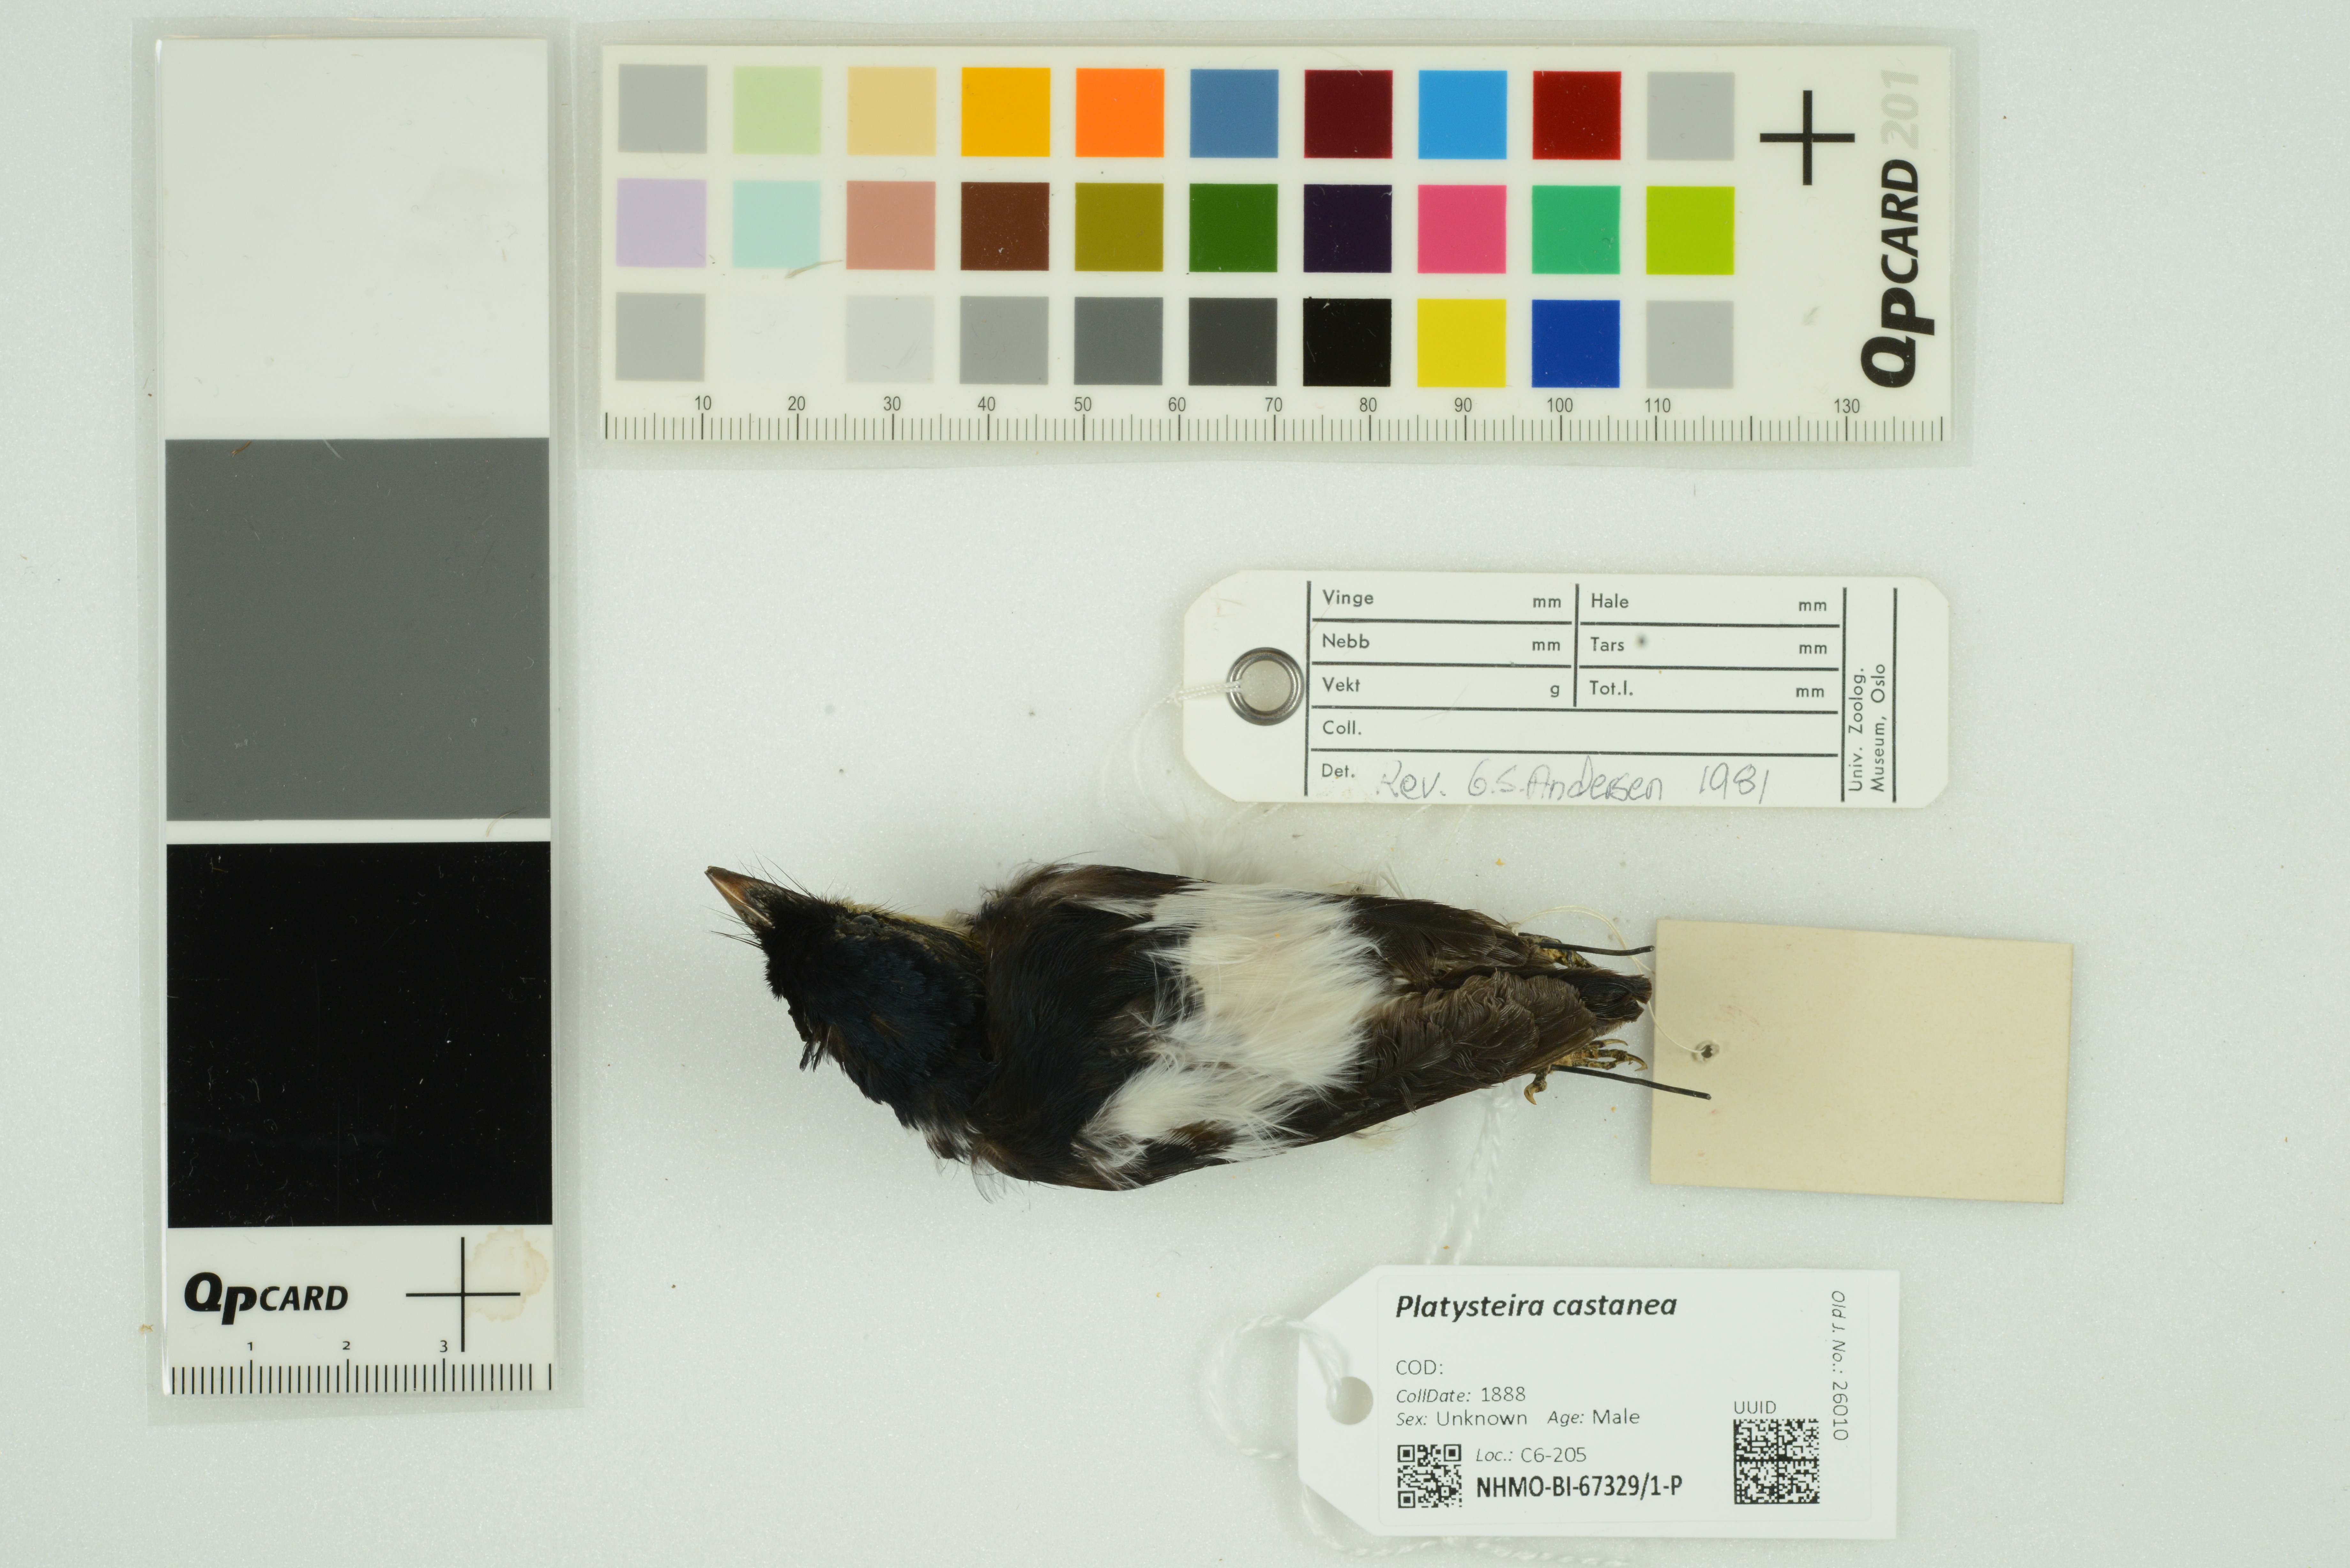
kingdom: Animalia
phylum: Chordata
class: Aves
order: Passeriformes
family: Platysteiridae
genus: Platysteira
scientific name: Platysteira castanea
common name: Chestnut wattle-eye
